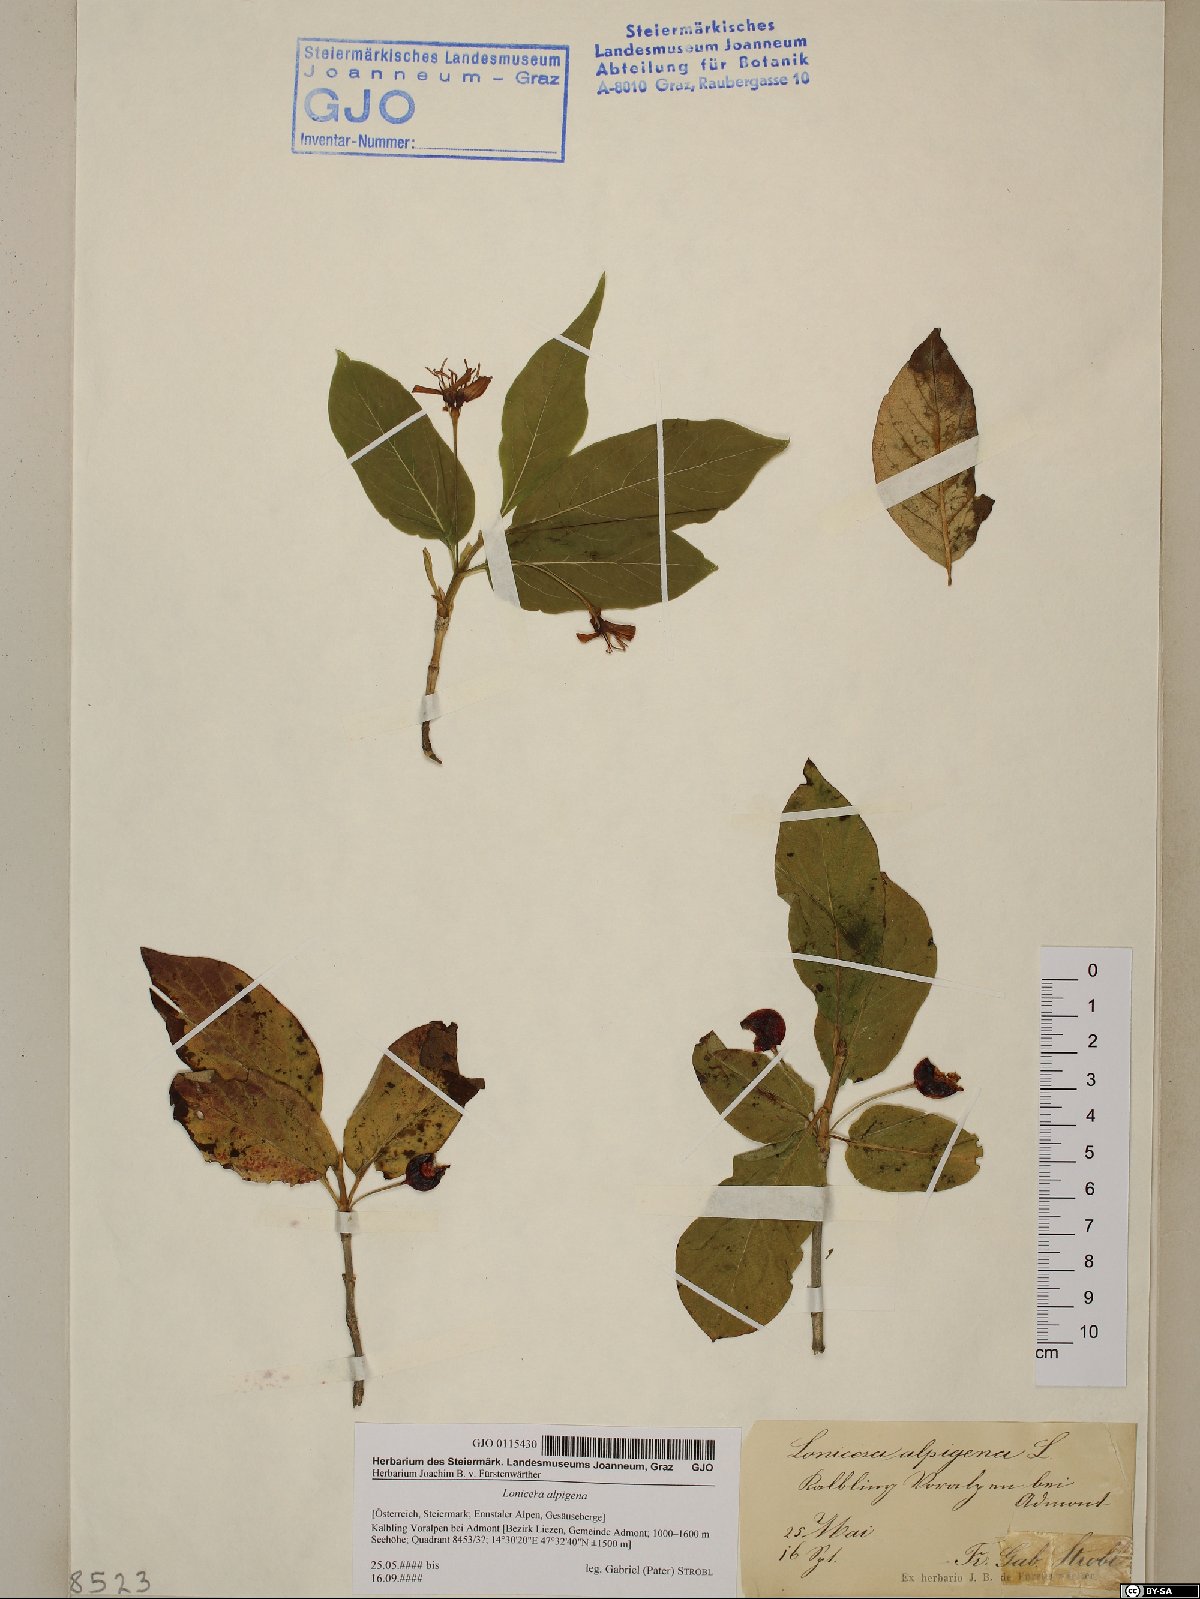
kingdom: Plantae
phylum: Tracheophyta
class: Magnoliopsida
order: Dipsacales
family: Caprifoliaceae
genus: Lonicera
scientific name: Lonicera alpigena
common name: Alpine honeysuckle
